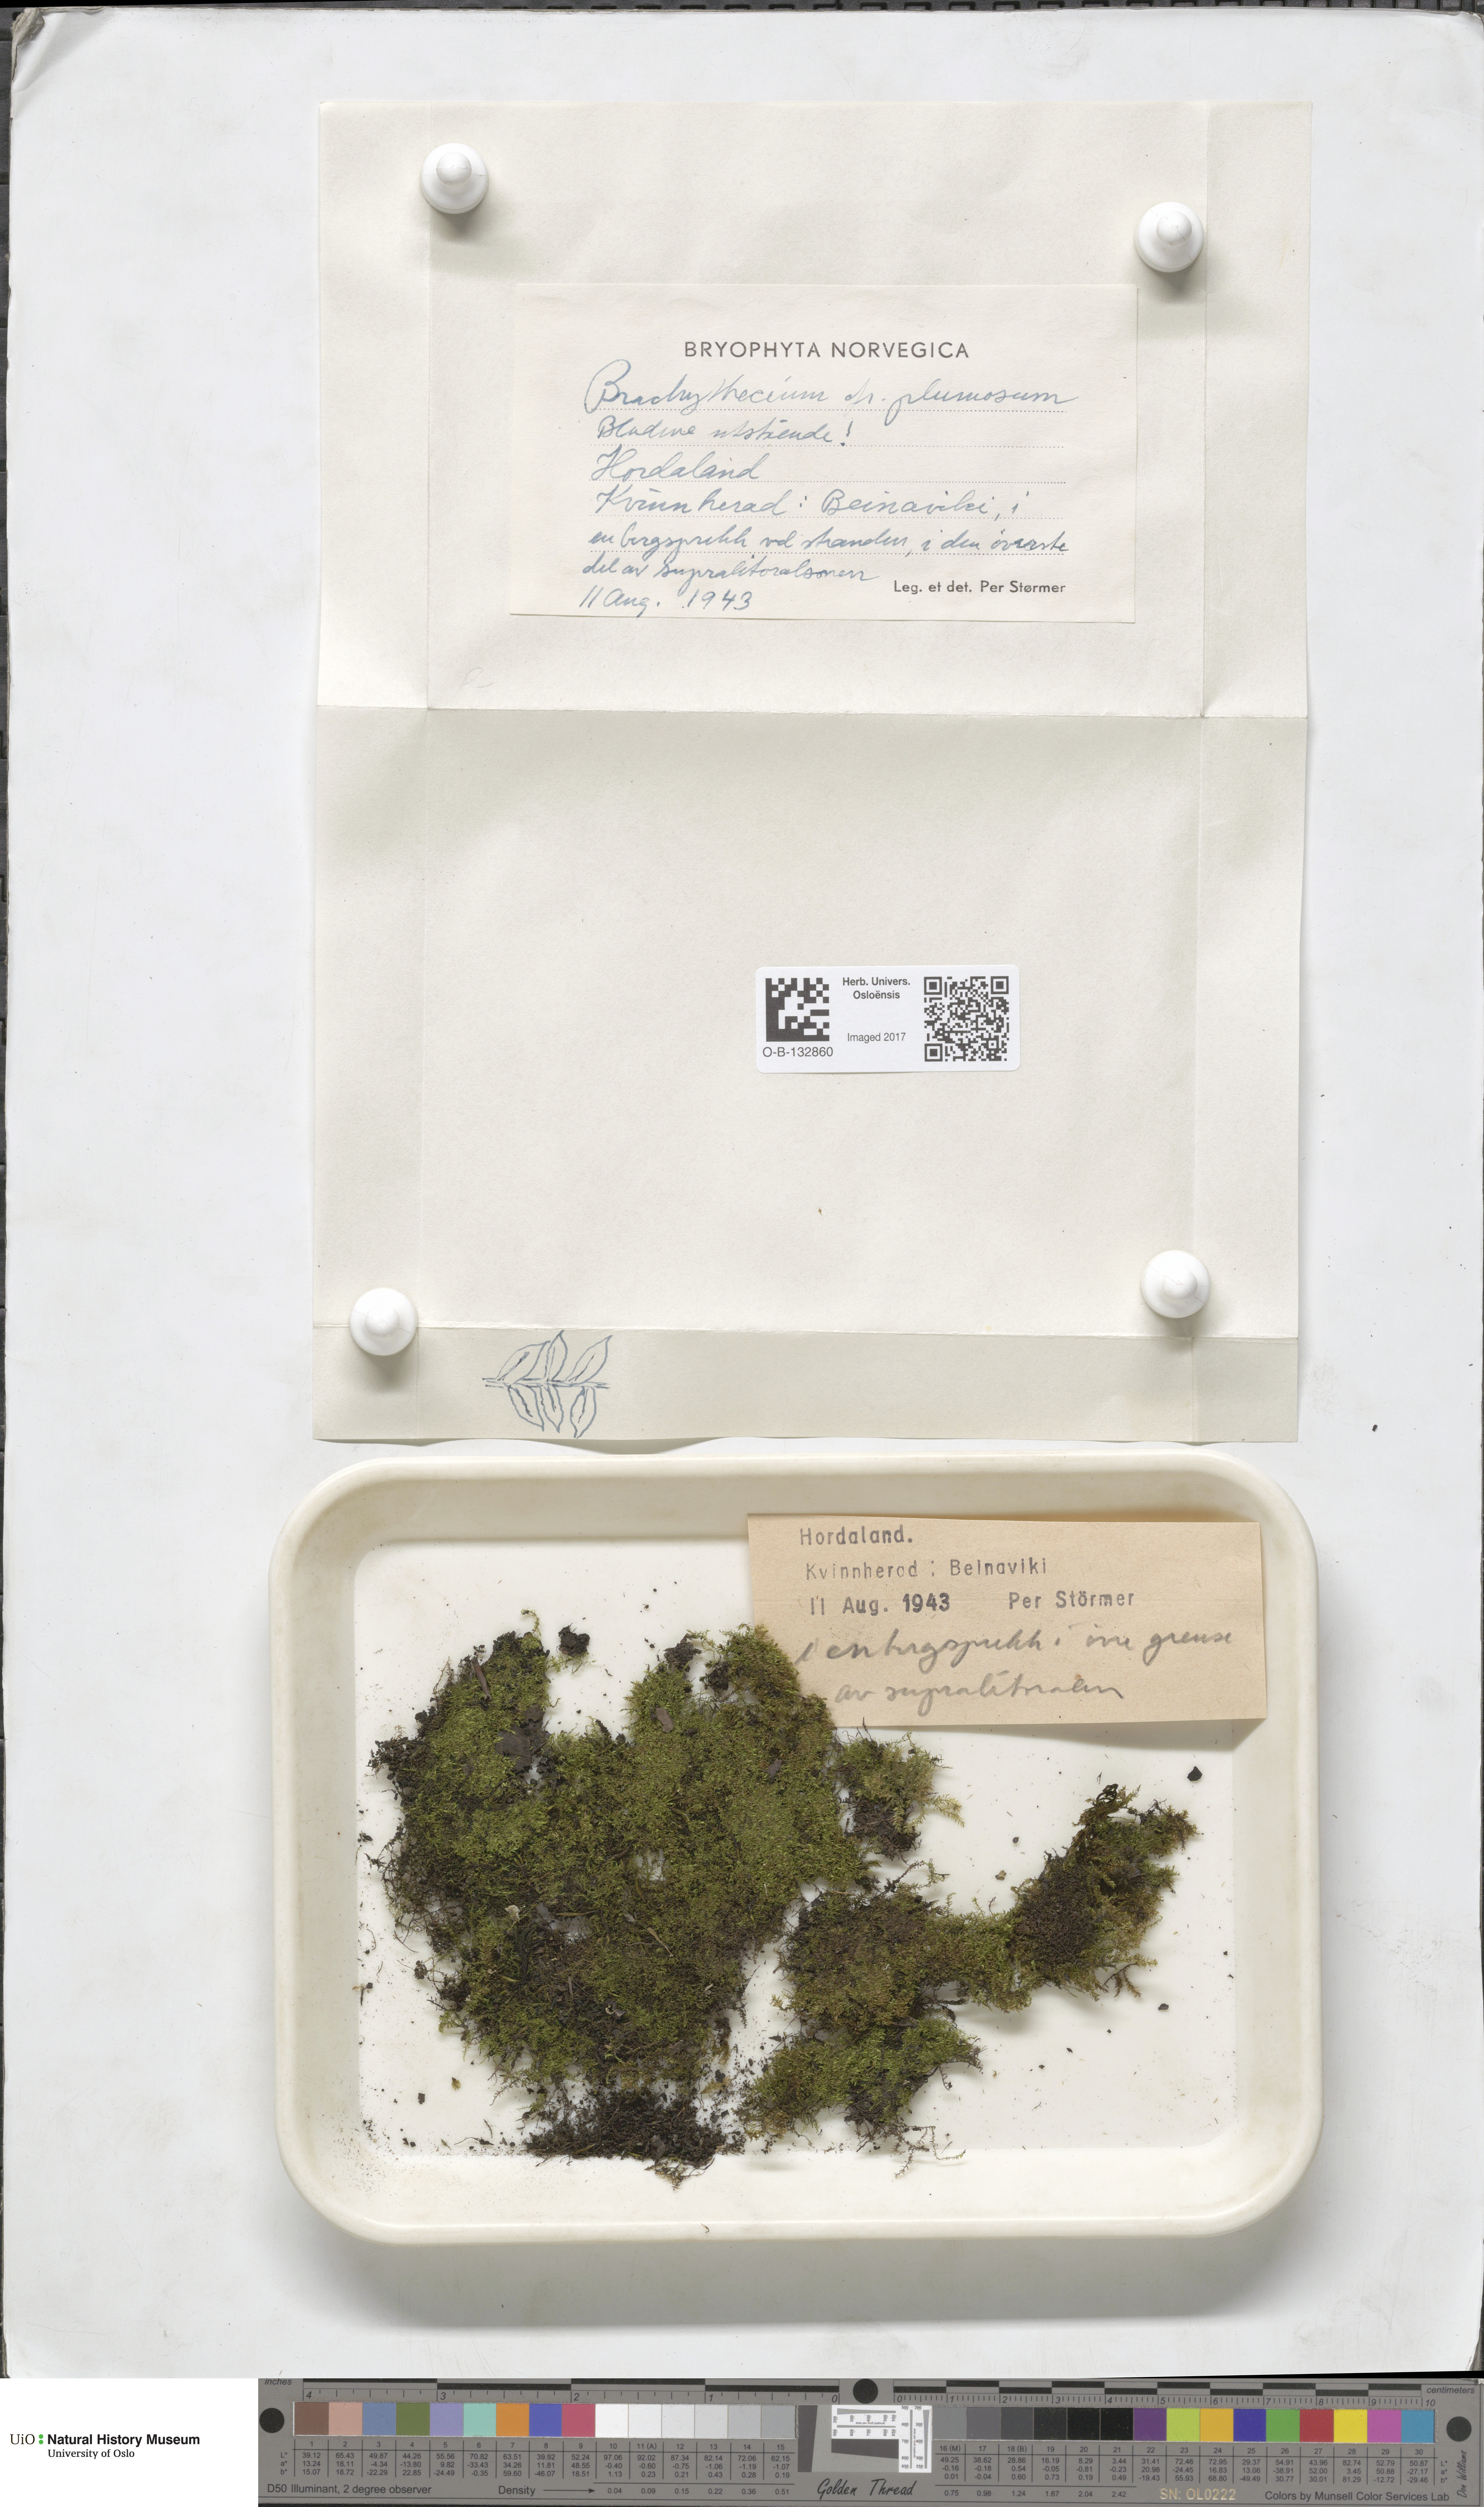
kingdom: Plantae
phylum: Bryophyta
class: Bryopsida
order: Hypnales
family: Brachytheciaceae
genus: Sciuro-hypnum
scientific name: Sciuro-hypnum plumosum
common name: Rusty feather-moss
